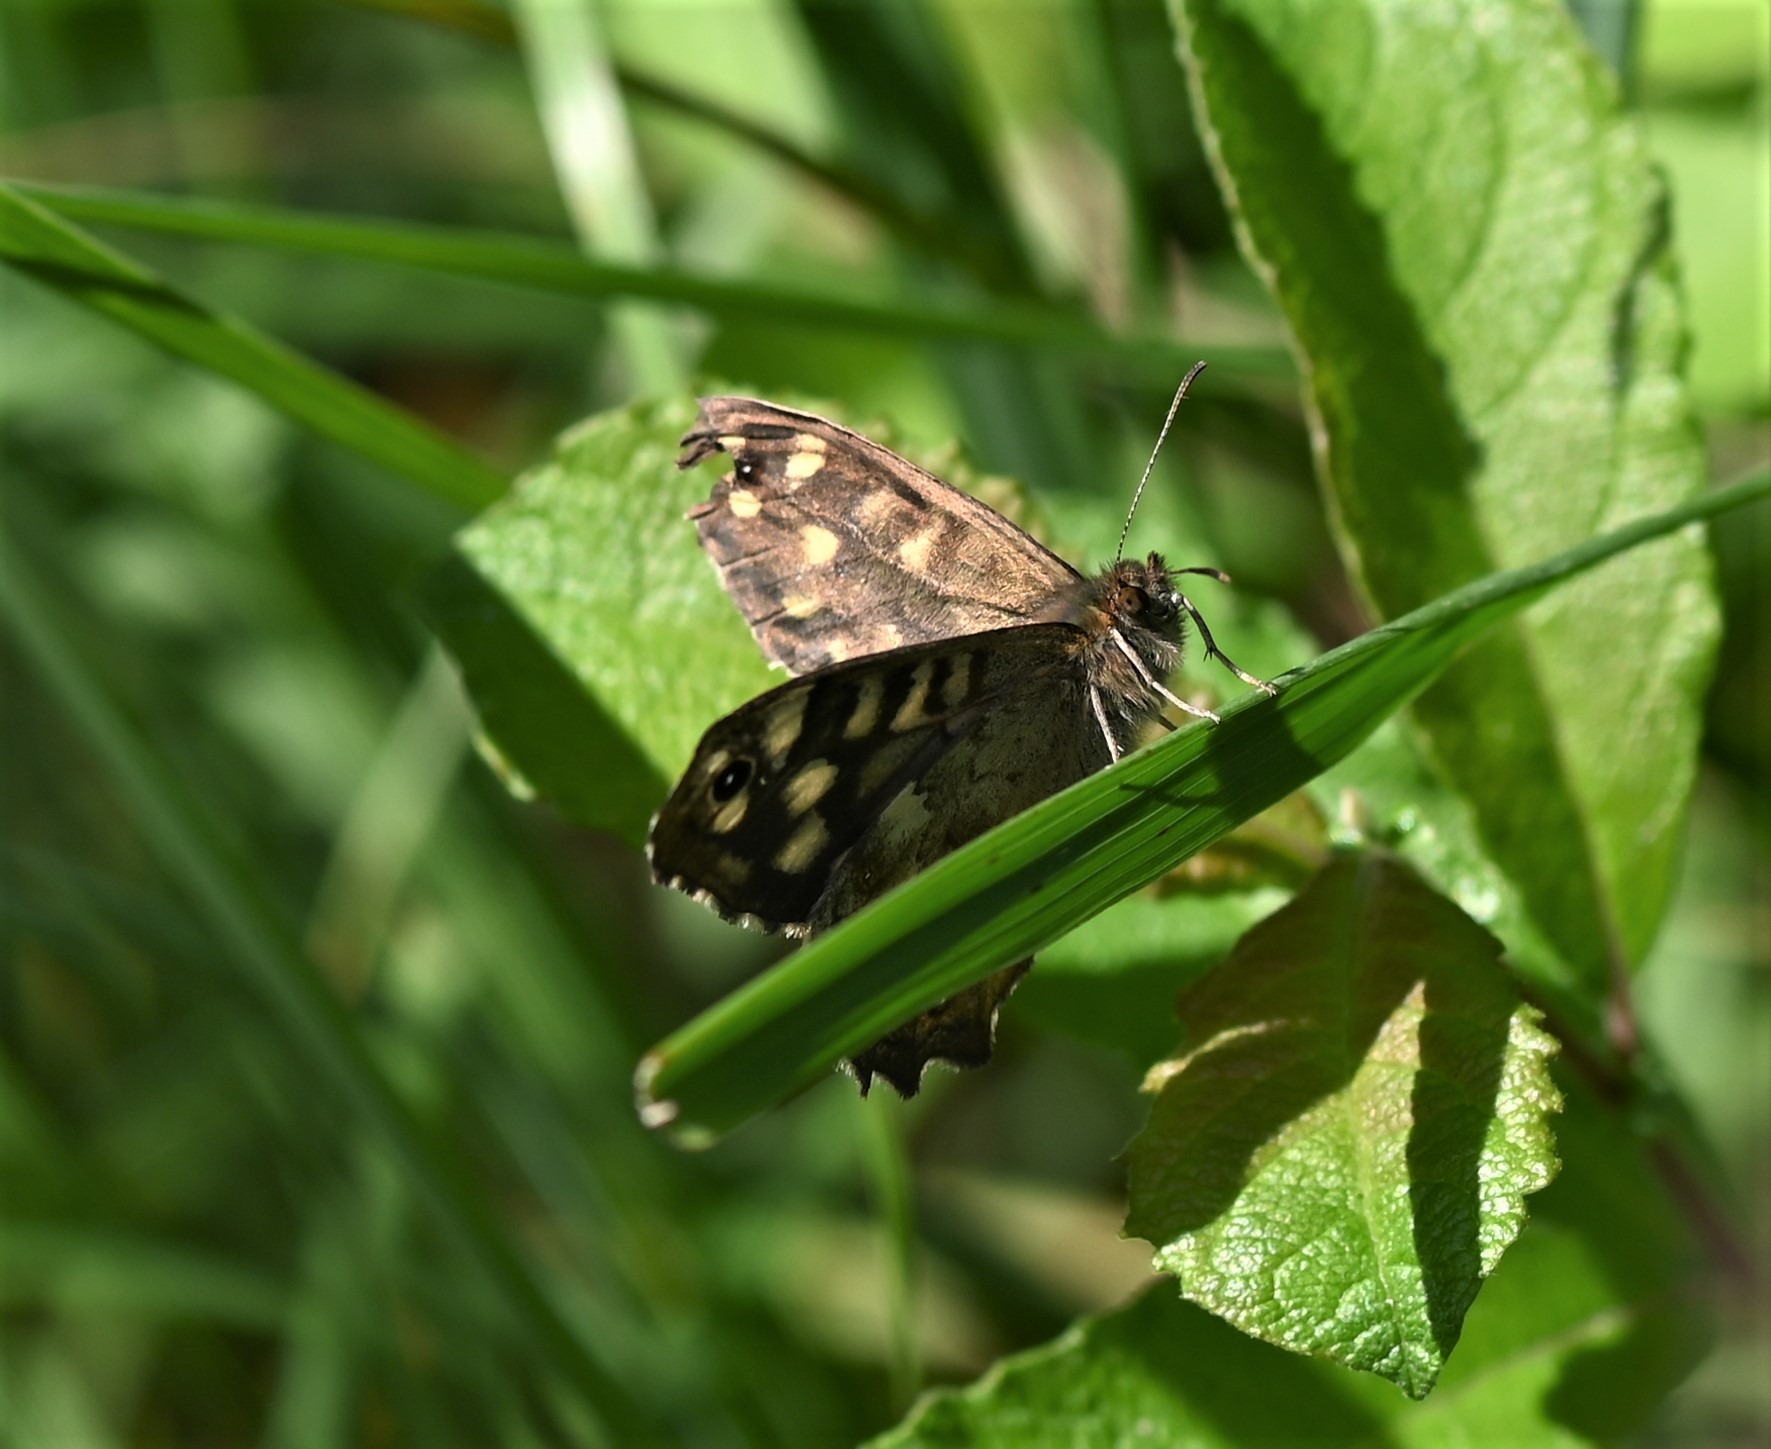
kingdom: Animalia
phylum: Arthropoda
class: Insecta
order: Lepidoptera
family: Nymphalidae
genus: Pararge
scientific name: Pararge aegeria
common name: Skovrandøje
